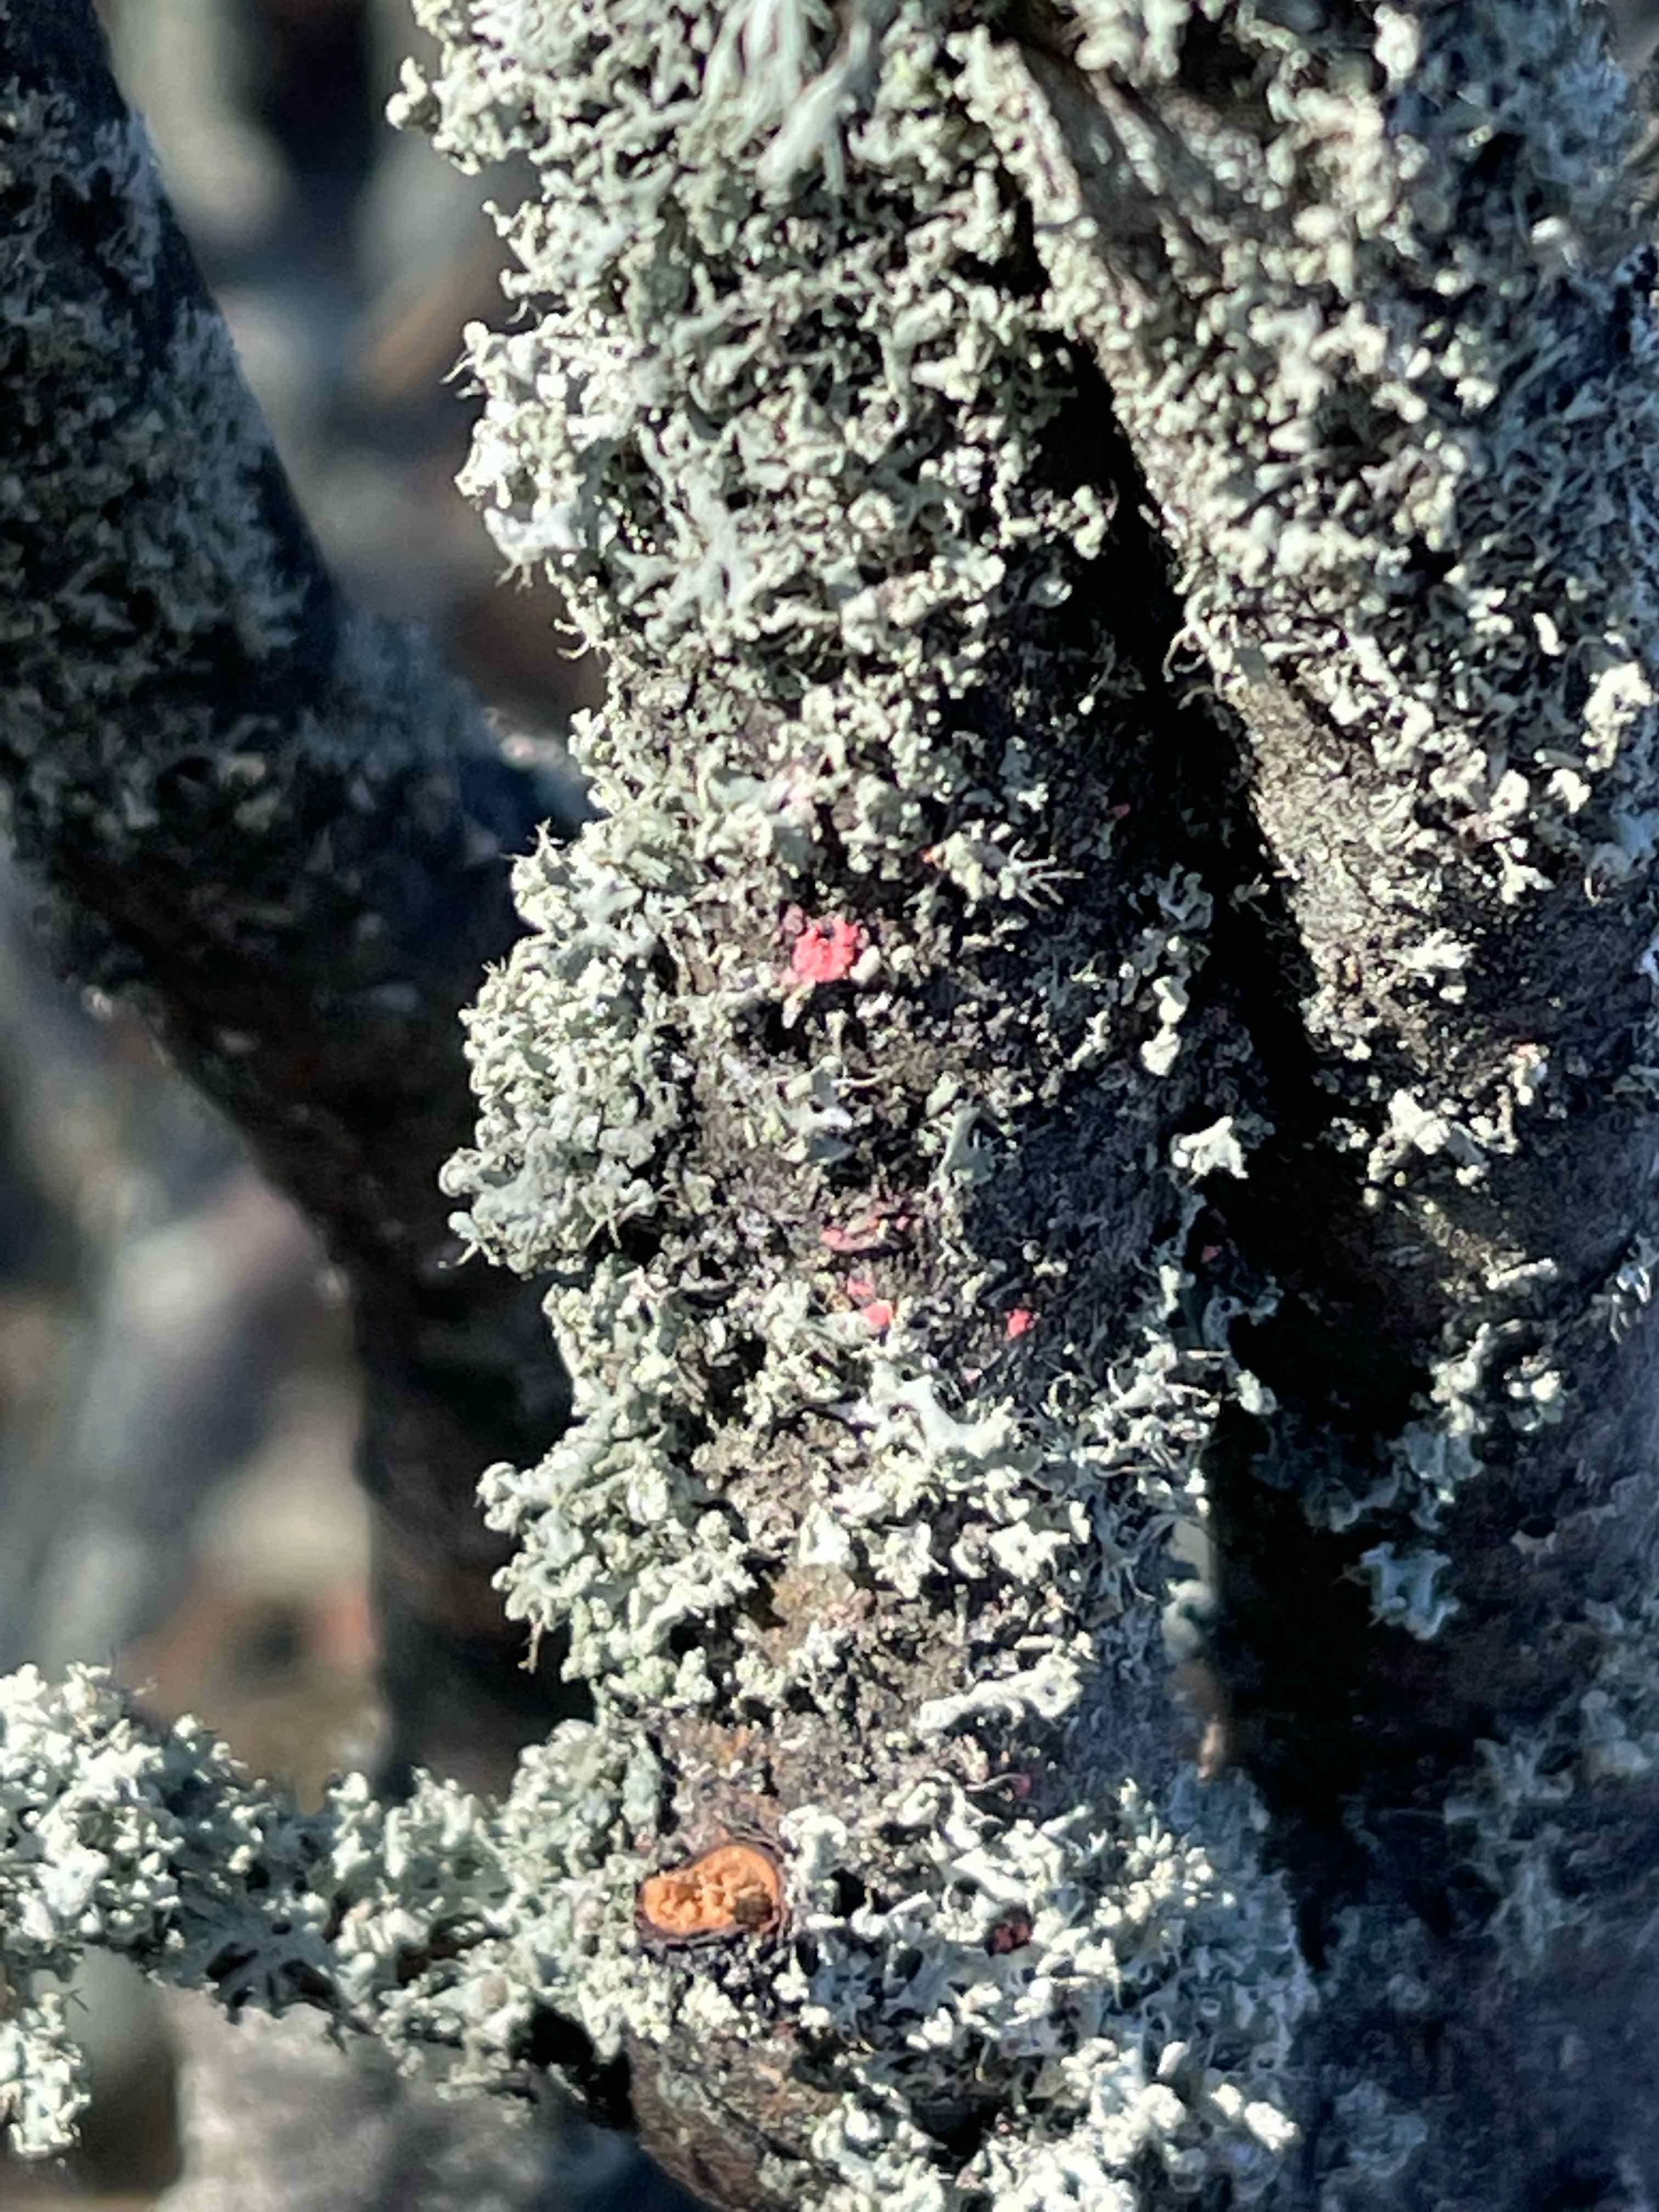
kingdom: Fungi
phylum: Ascomycota
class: Sordariomycetes
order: Hypocreales
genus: Illosporiopsis
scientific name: Illosporiopsis christiansenii
